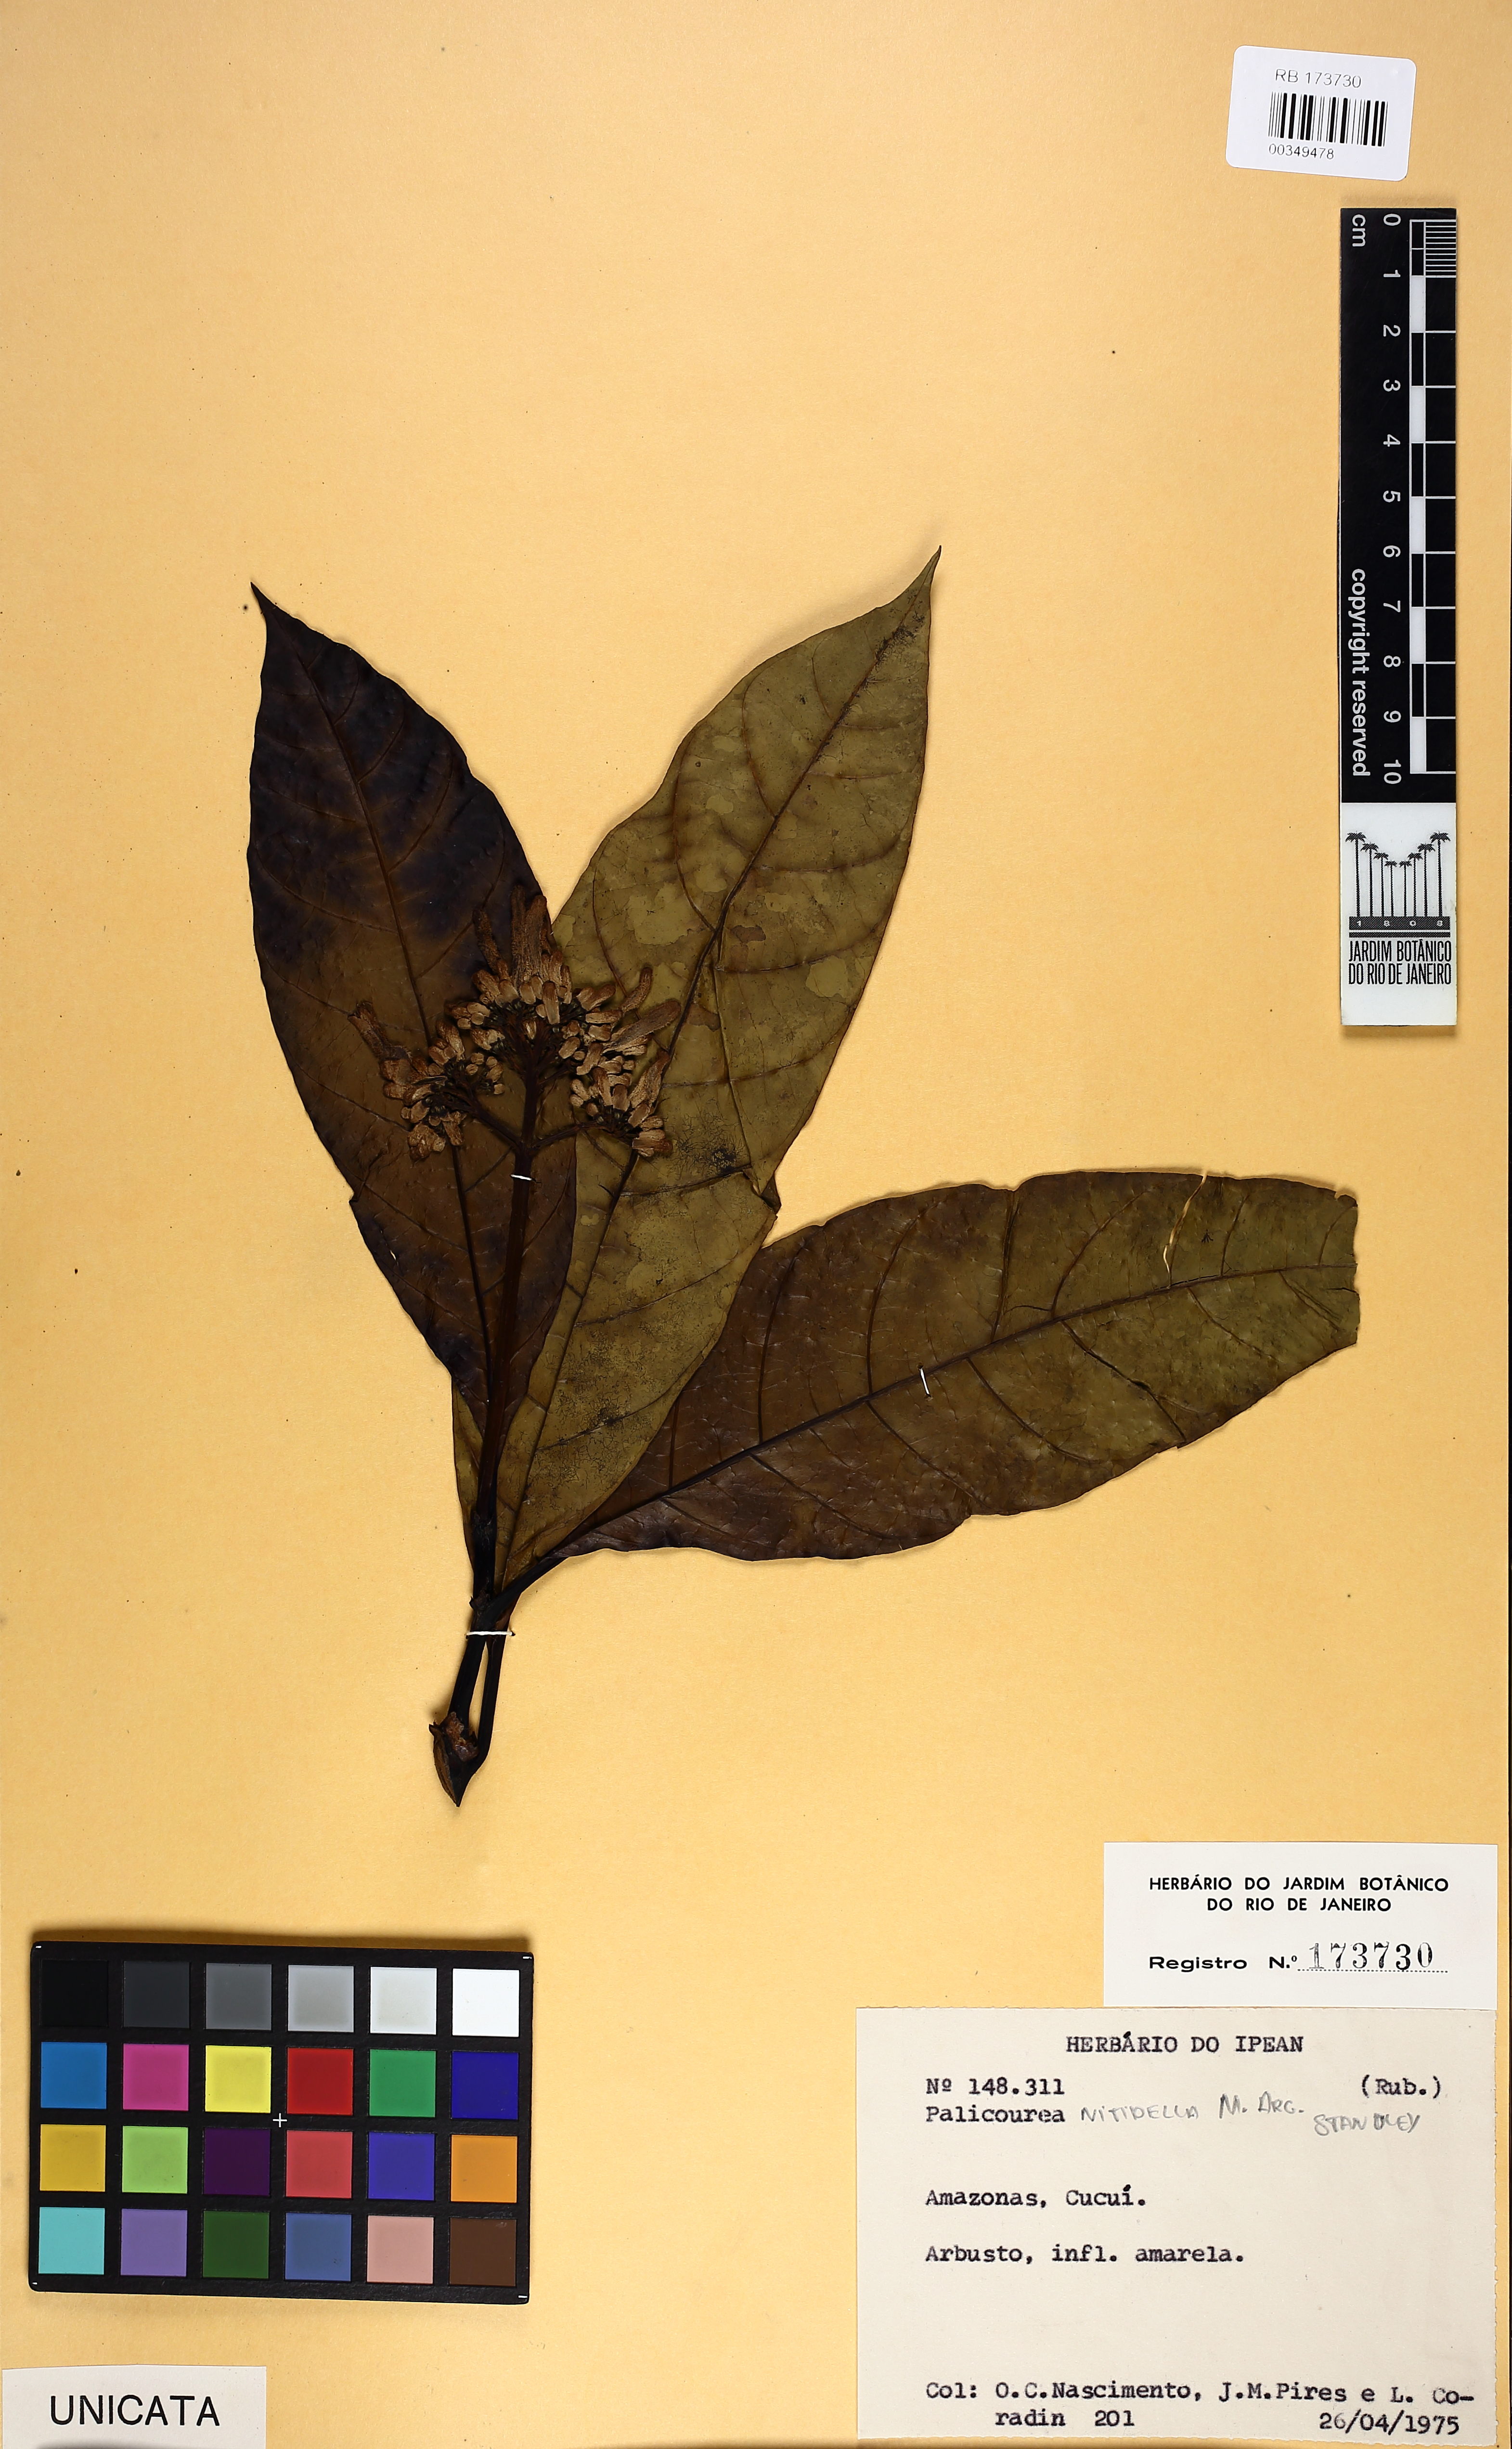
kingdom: Plantae
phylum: Tracheophyta
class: Magnoliopsida
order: Gentianales
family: Rubiaceae
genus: Palicourea
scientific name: Palicourea nitidella
